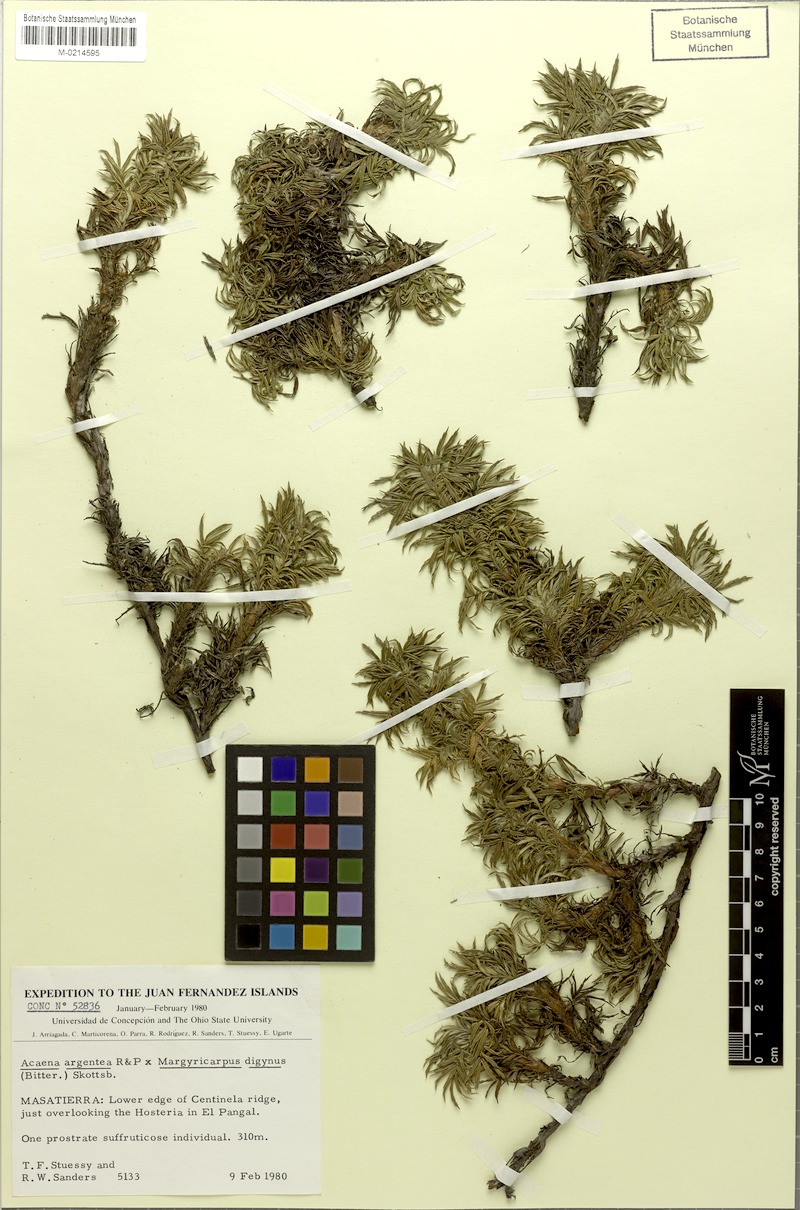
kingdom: Plantae
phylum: Tracheophyta
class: Magnoliopsida
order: Rosales
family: Rosaceae
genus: Margyracaena
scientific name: Margyracaena skottsbergii
